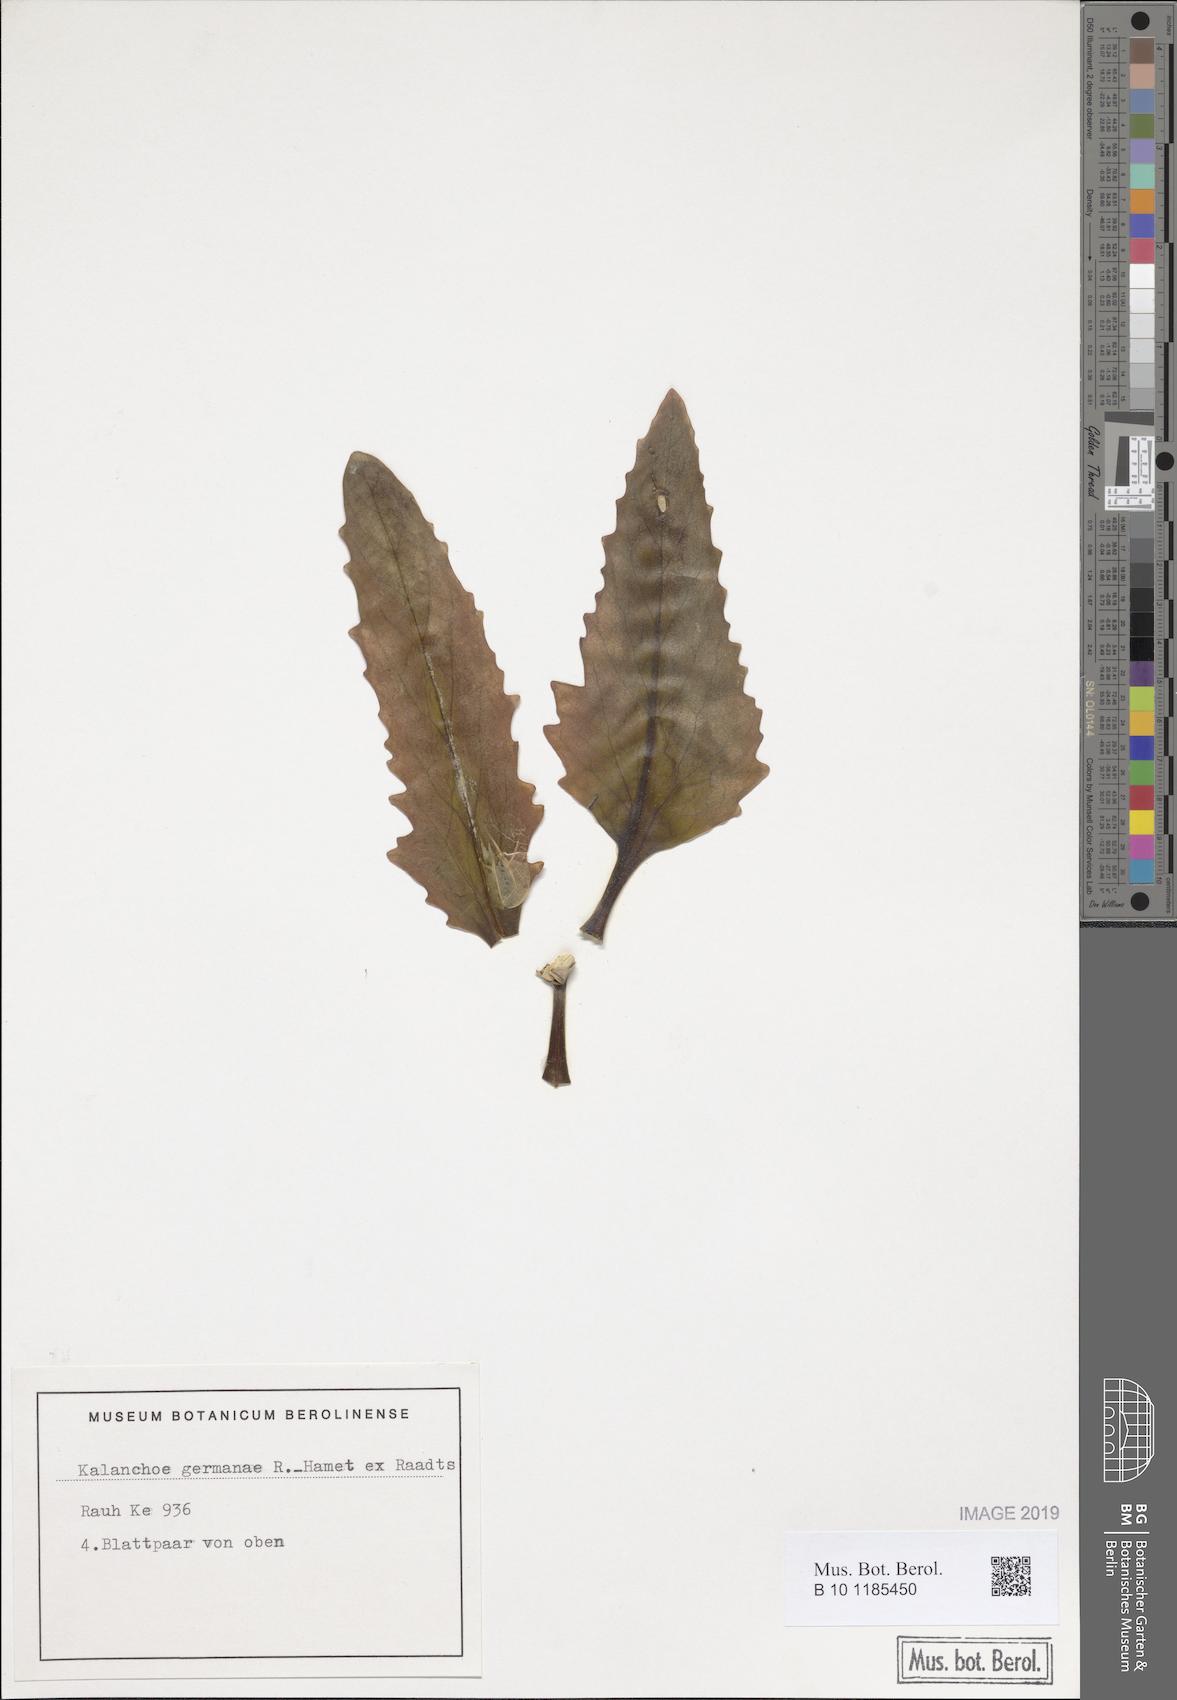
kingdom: Plantae
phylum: Tracheophyta
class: Magnoliopsida
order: Saxifragales
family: Crassulaceae
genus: Kalanchoe
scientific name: Kalanchoe germanae
